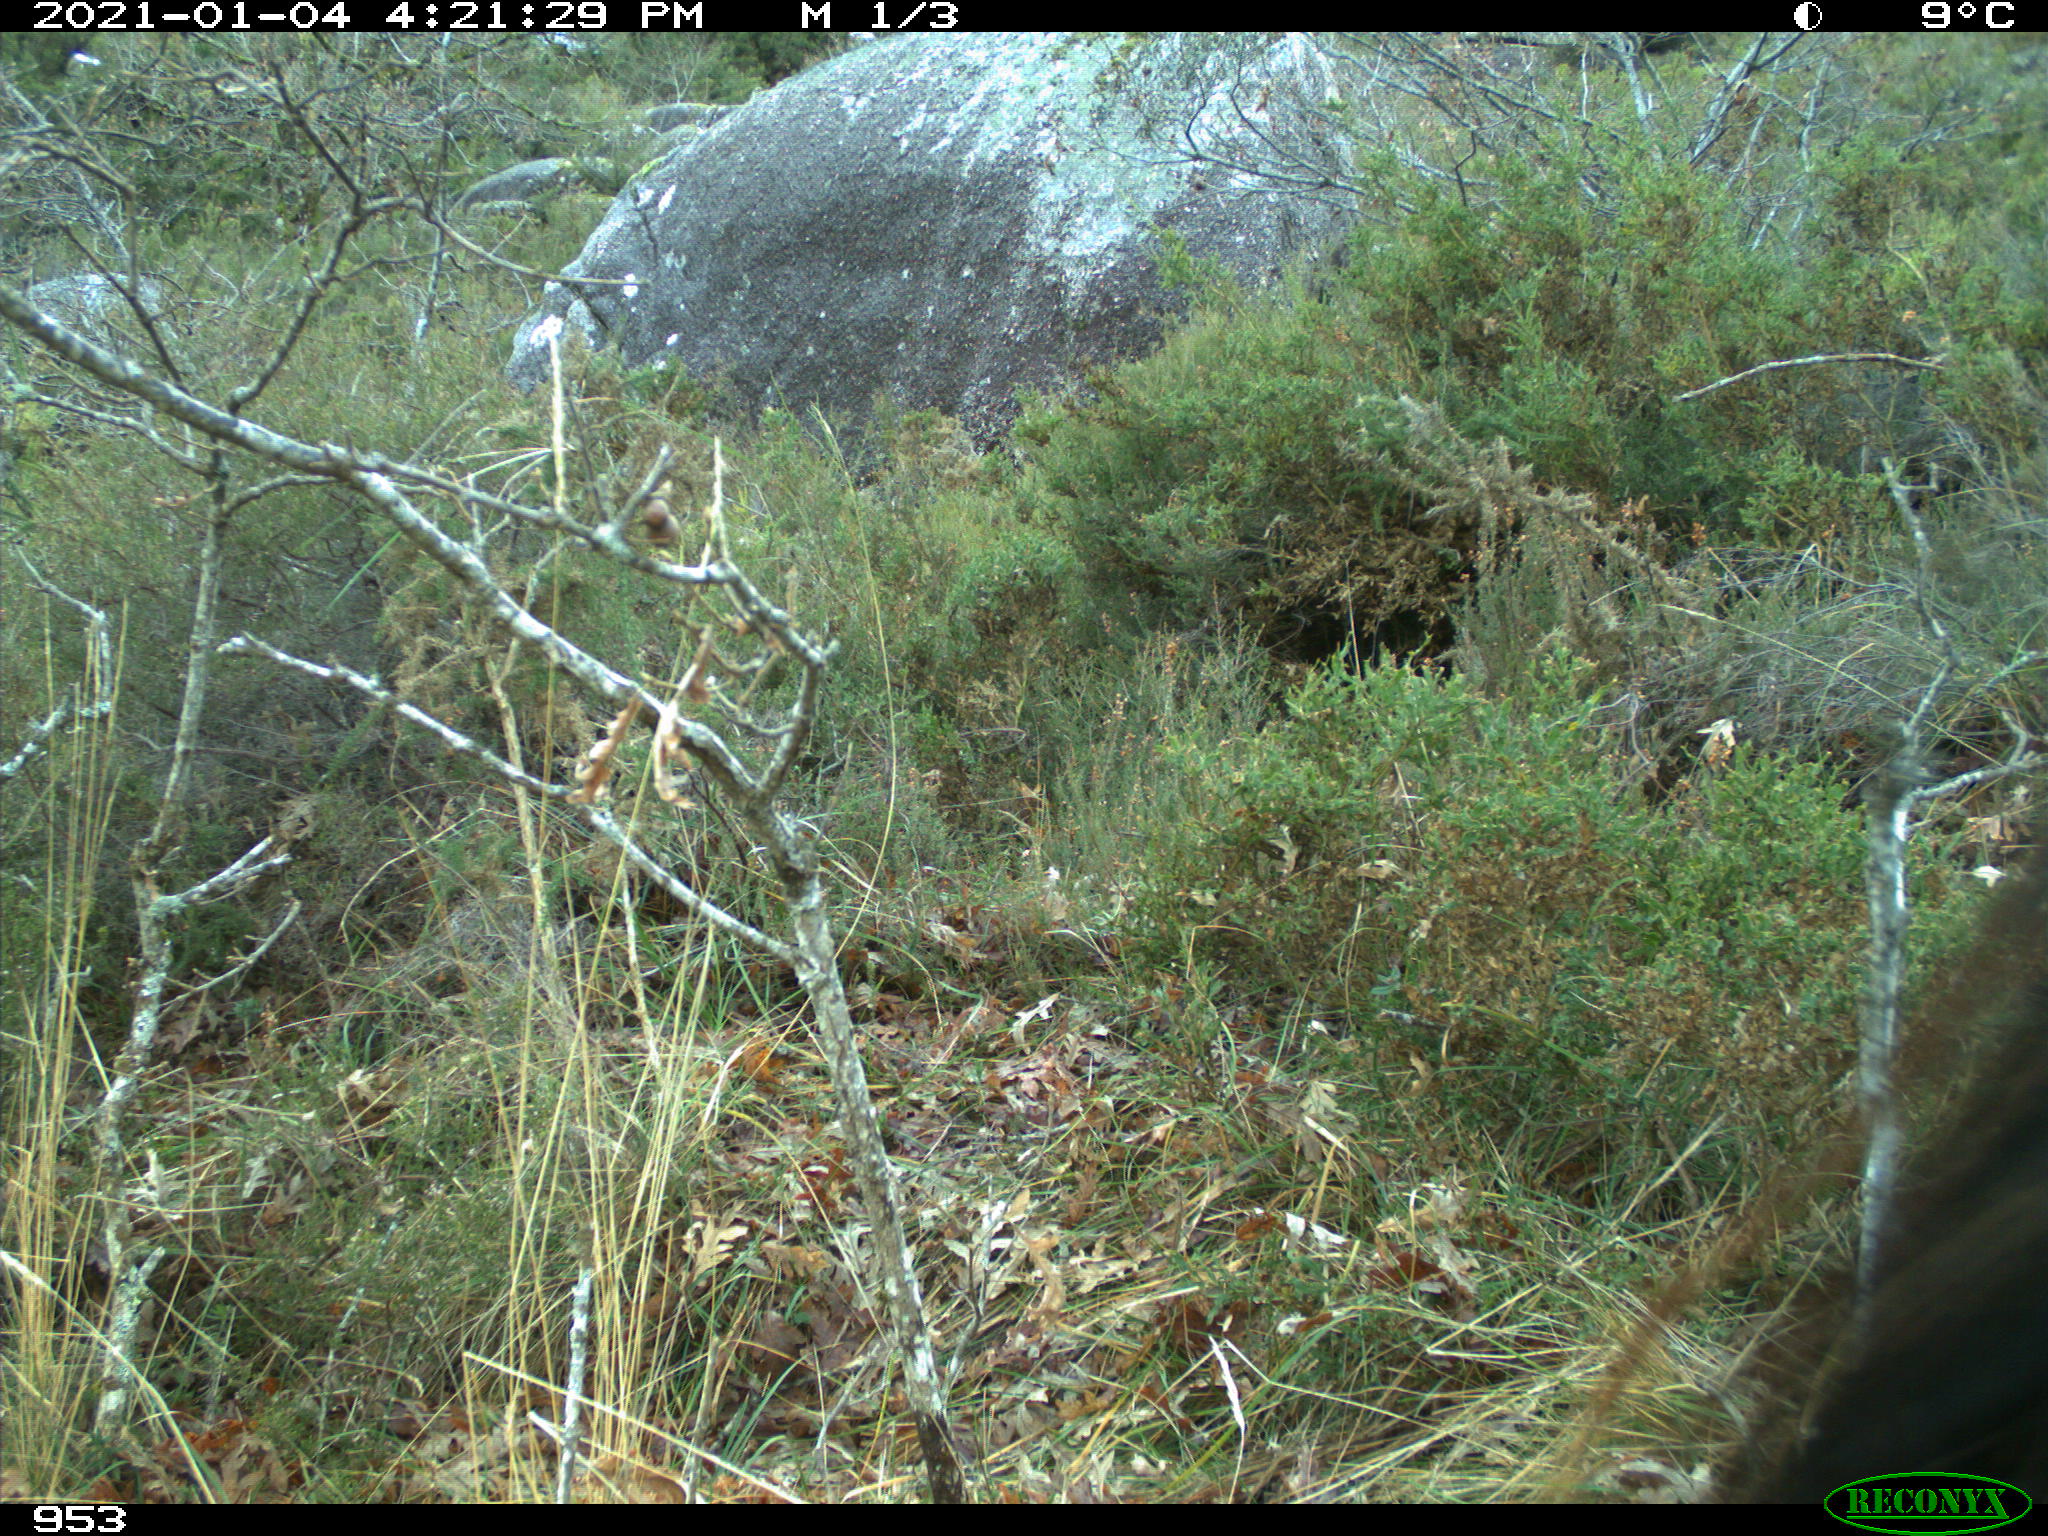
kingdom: Animalia
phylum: Chordata
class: Mammalia
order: Perissodactyla
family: Equidae
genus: Equus
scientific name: Equus caballus
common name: Horse
